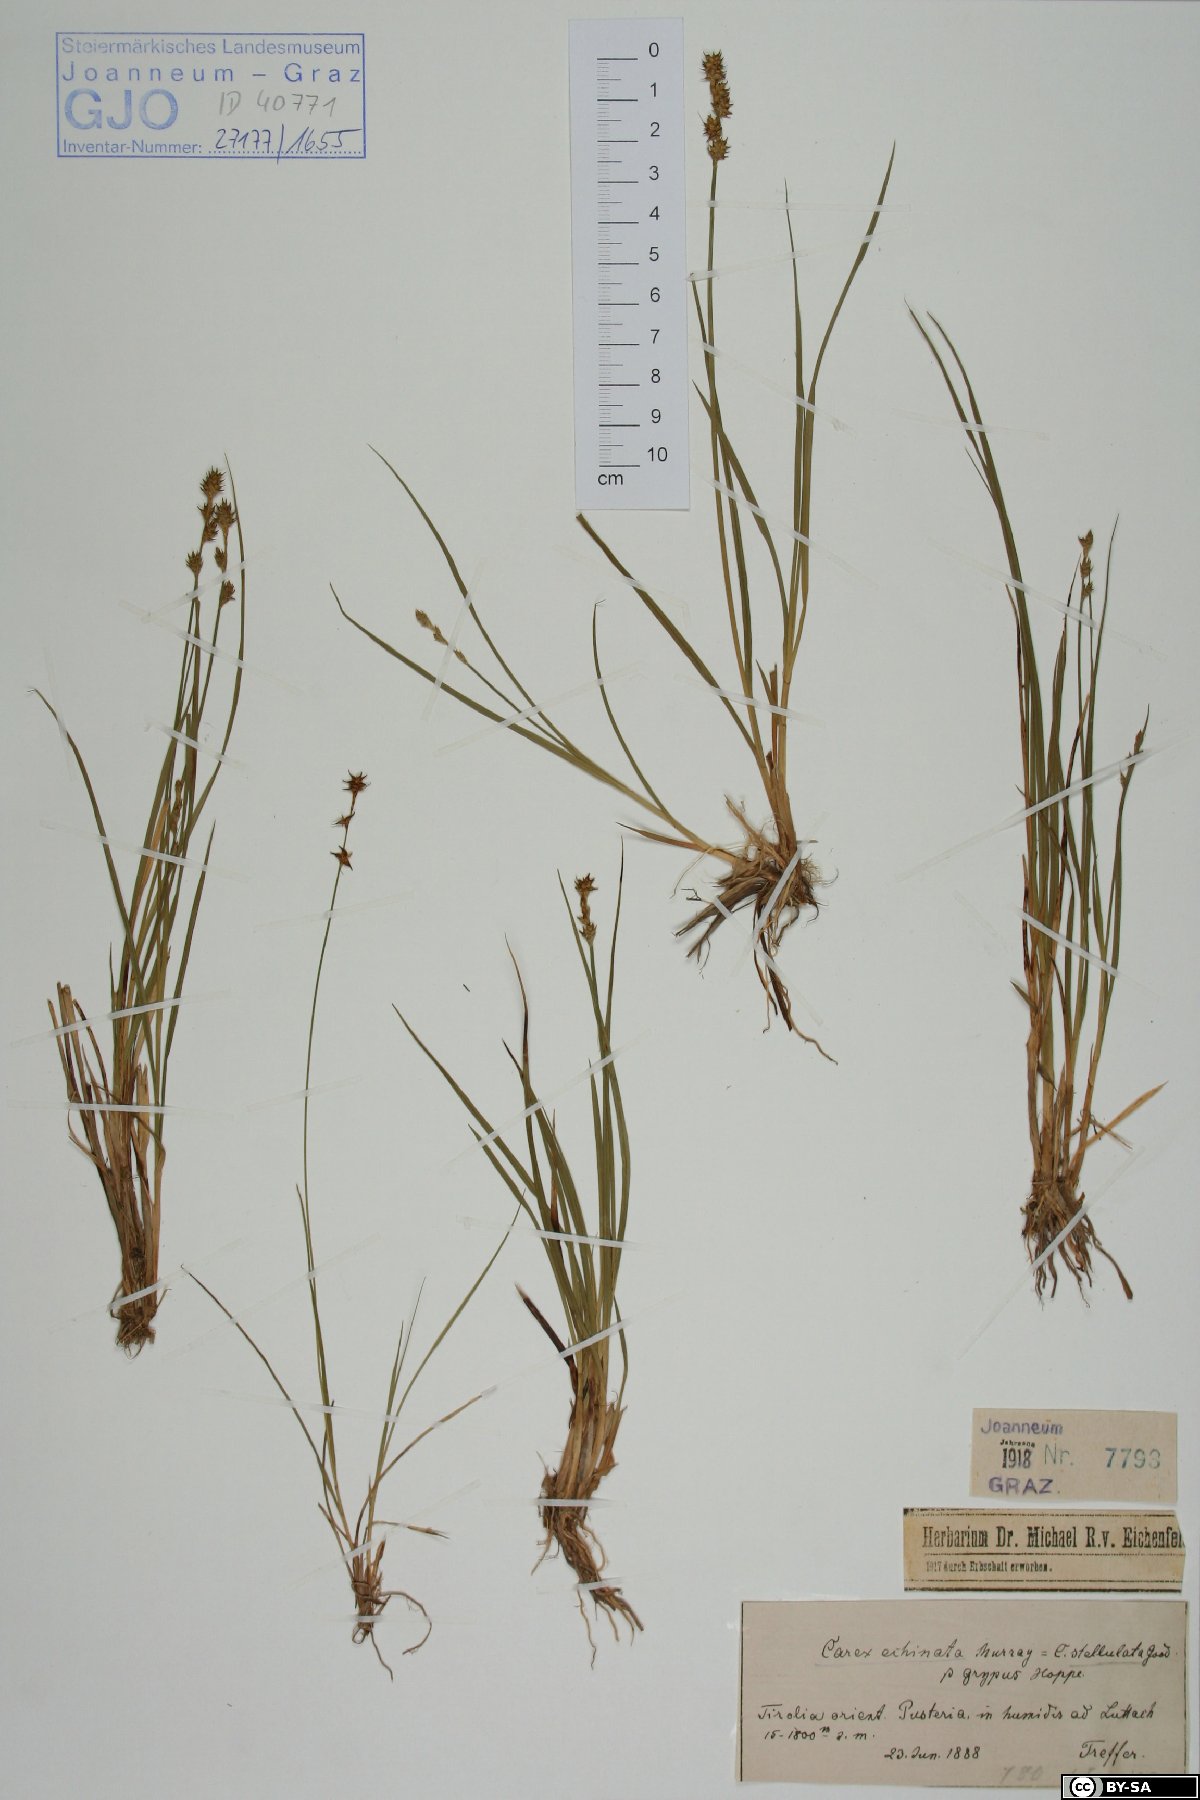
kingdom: Plantae
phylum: Tracheophyta
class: Liliopsida
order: Poales
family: Cyperaceae
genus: Carex
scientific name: Carex echinata
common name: Star sedge
